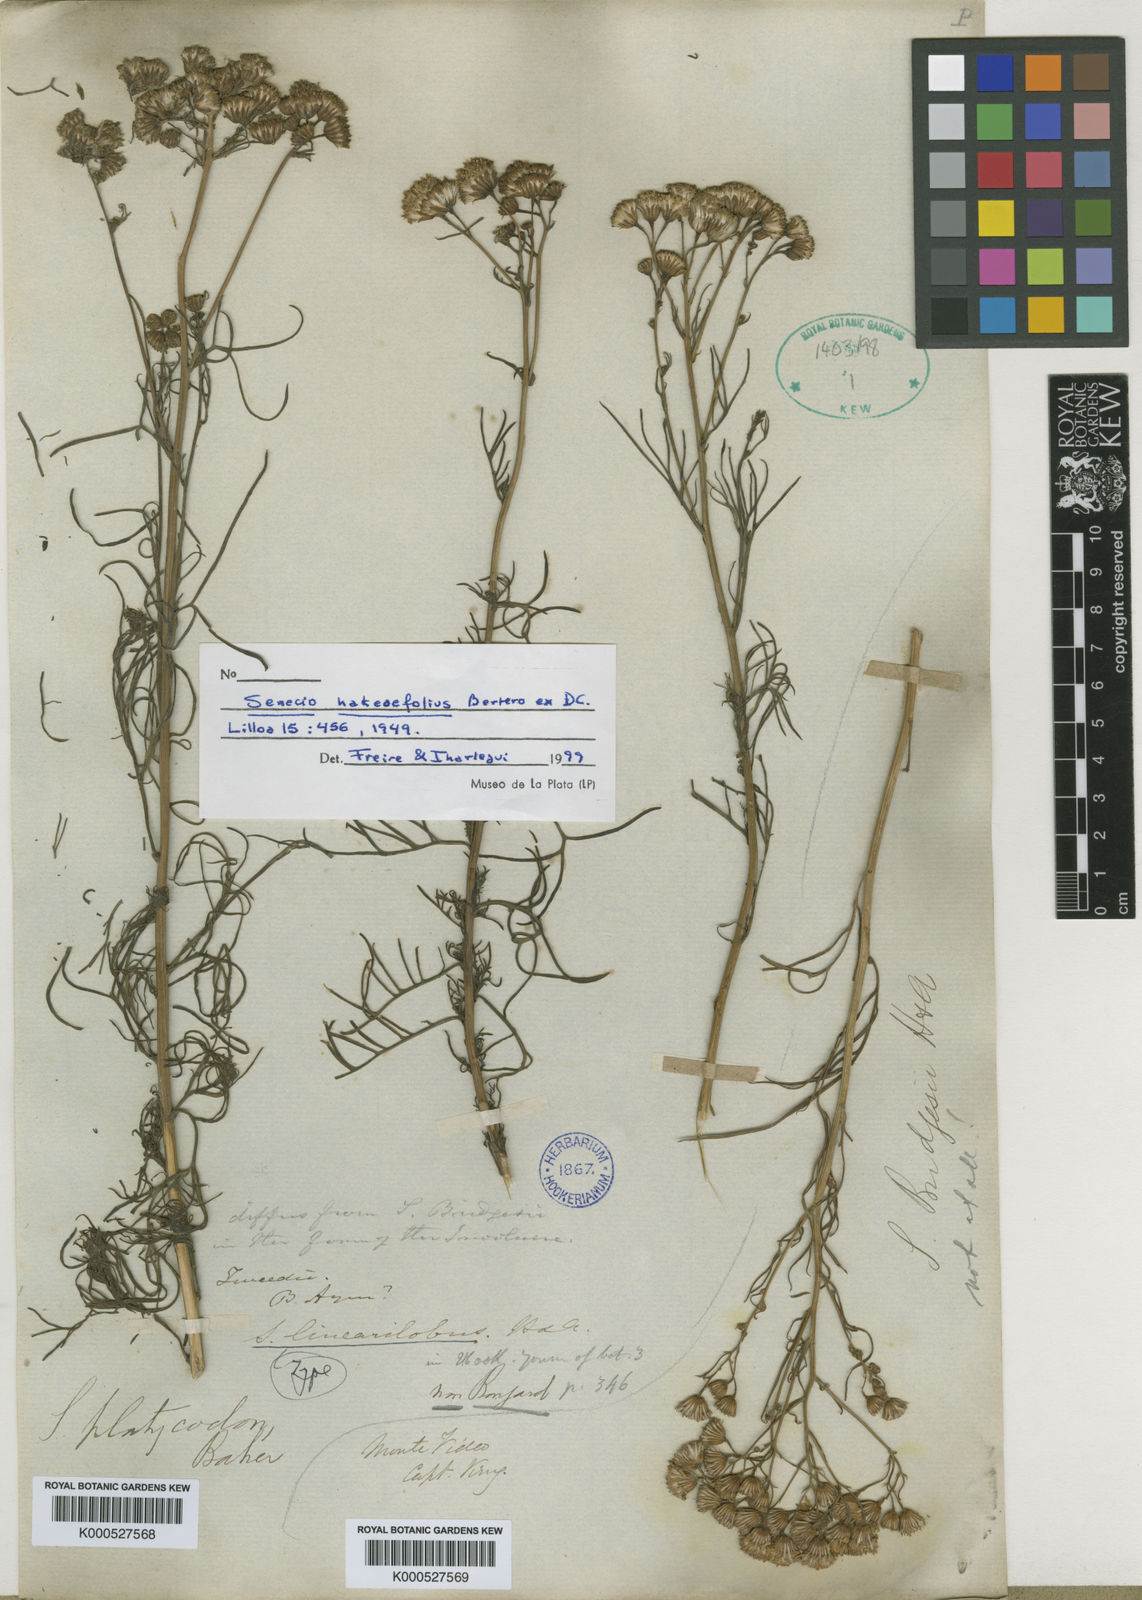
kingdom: Plantae
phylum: Tracheophyta
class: Magnoliopsida
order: Asterales
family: Asteraceae
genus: Senecio
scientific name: Senecio hakeifolius
